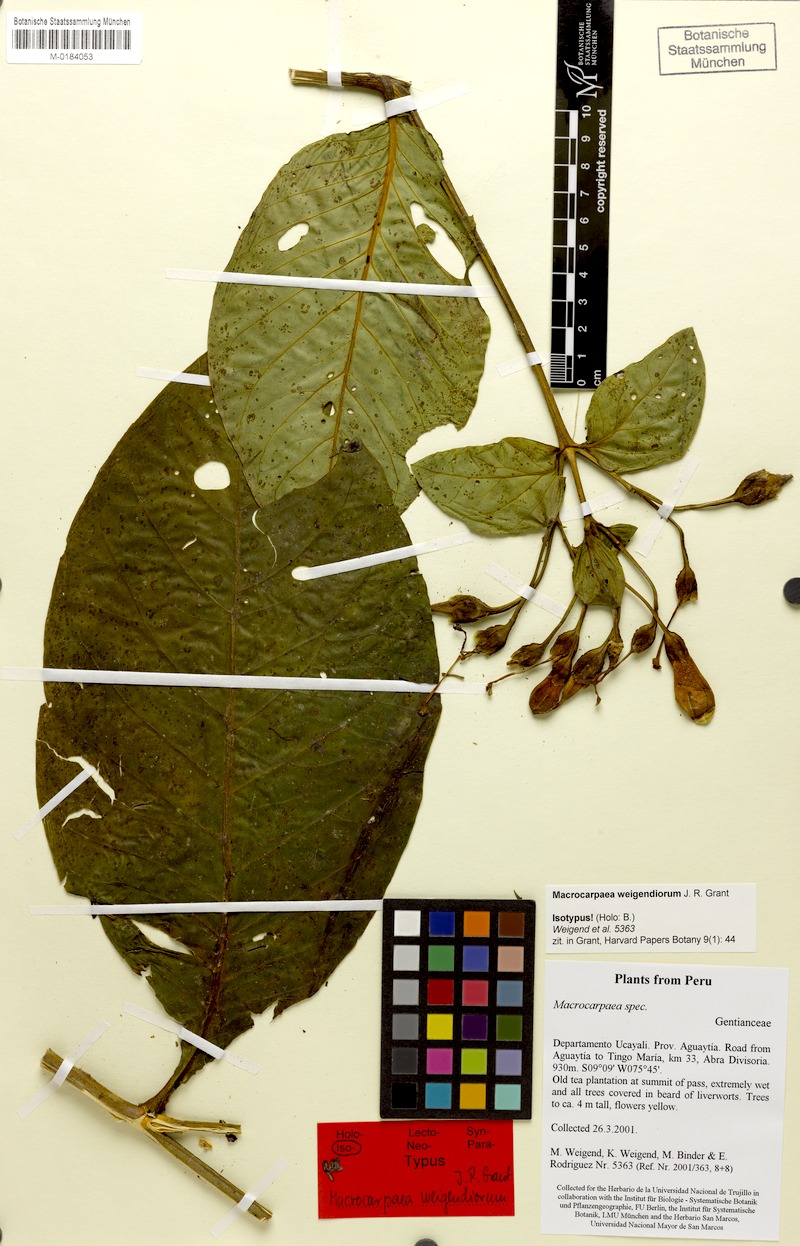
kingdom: Plantae
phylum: Tracheophyta
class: Magnoliopsida
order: Gentianales
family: Gentianaceae
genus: Macrocarpaea
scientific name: Macrocarpaea weigendiorum
